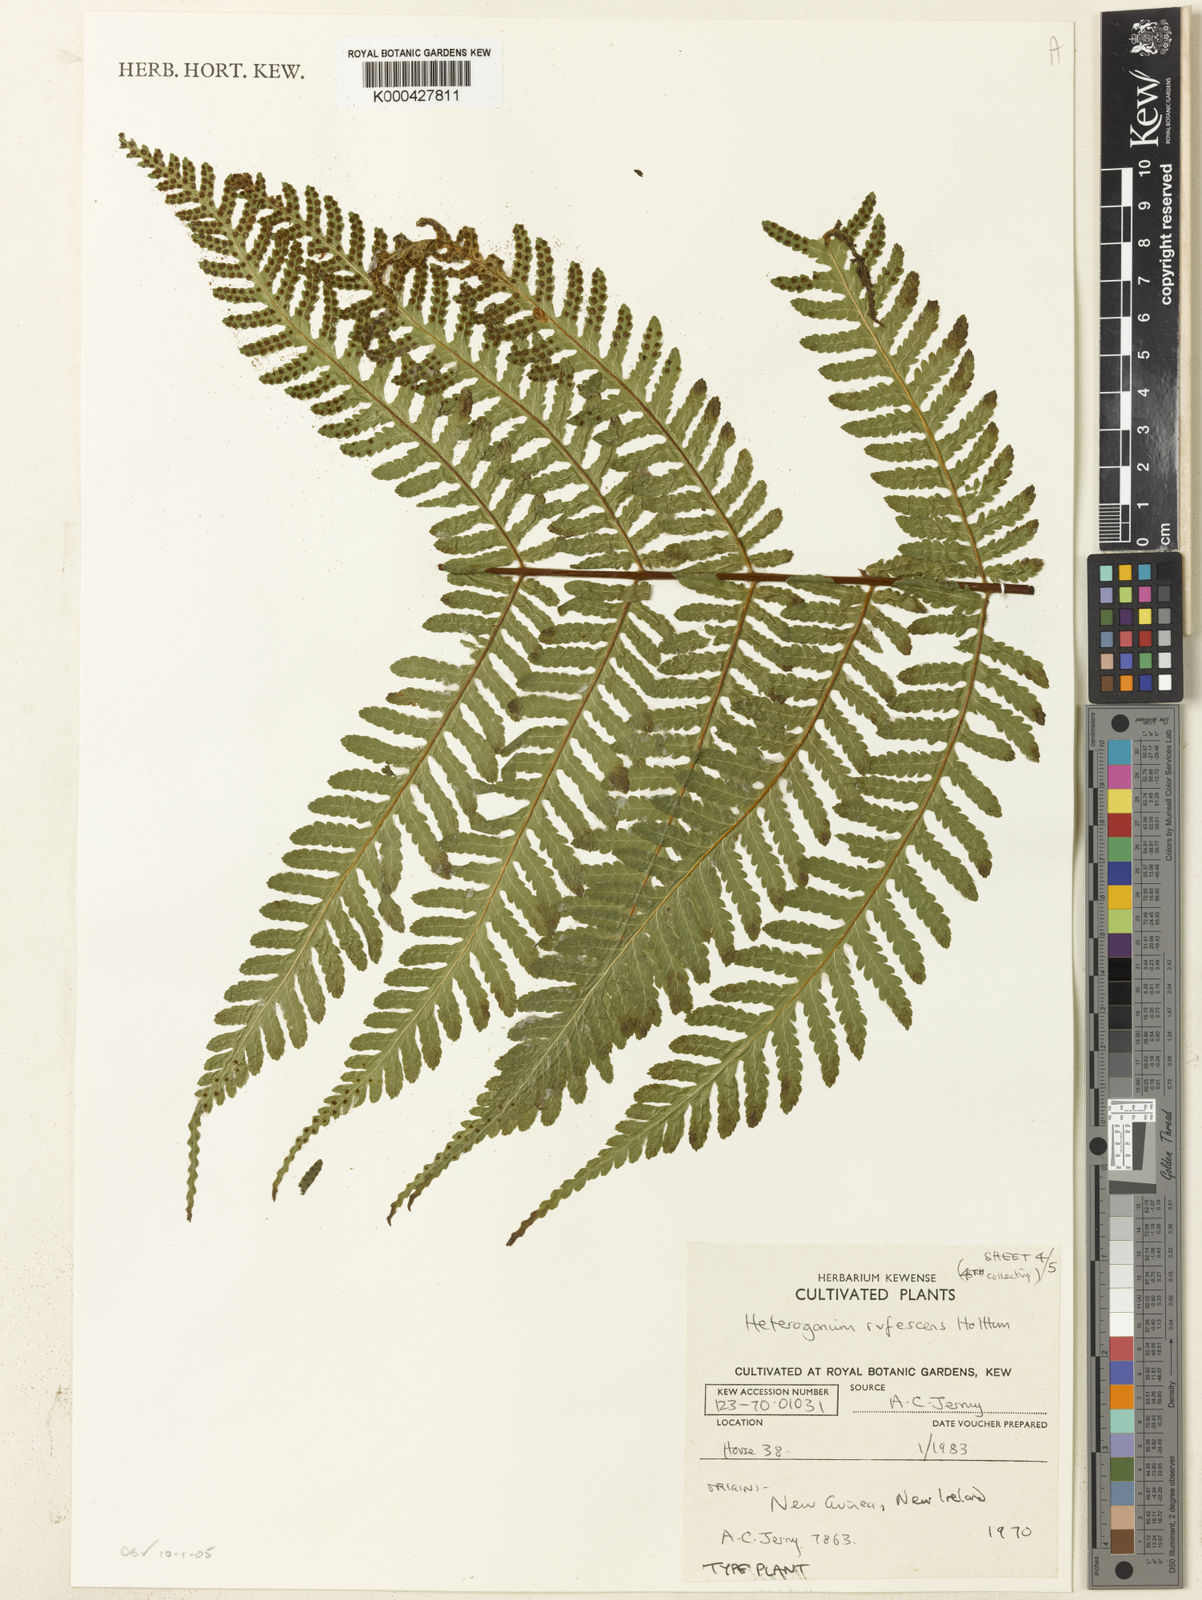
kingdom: Plantae
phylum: Tracheophyta
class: Polypodiopsida
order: Polypodiales
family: Tectariaceae
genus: Tectaria
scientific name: Tectaria jermyi
